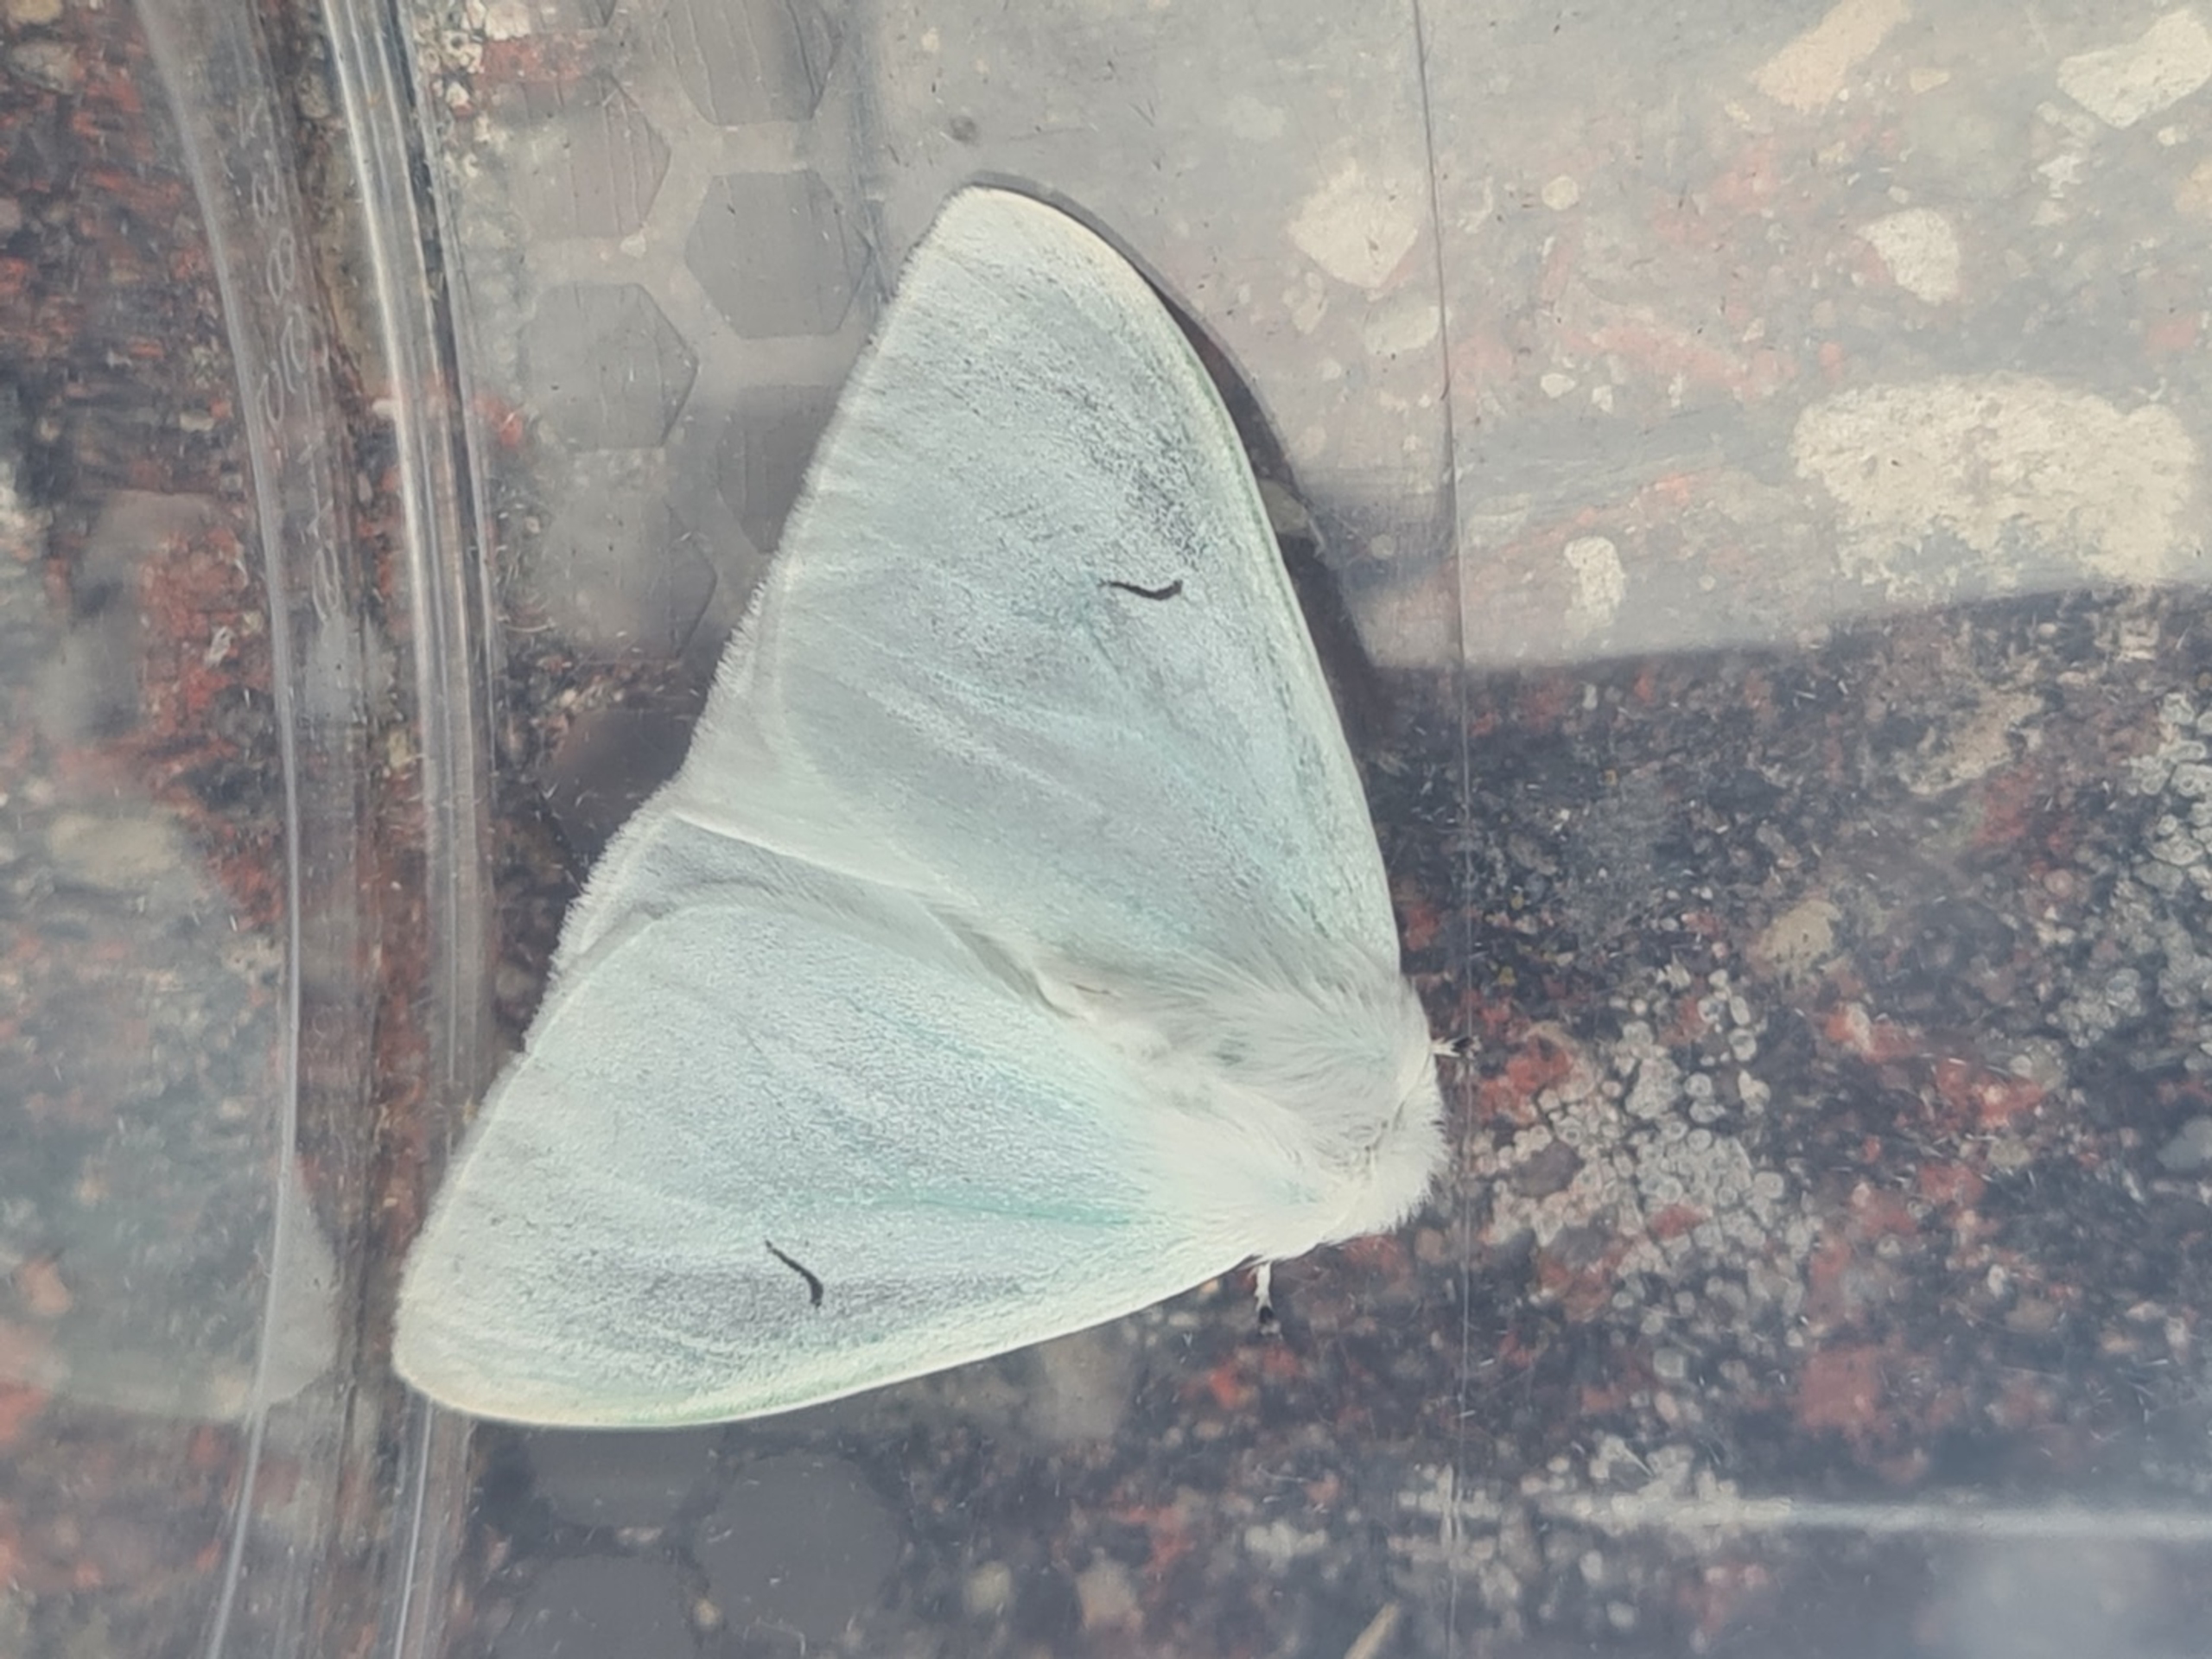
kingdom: Animalia
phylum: Arthropoda
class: Insecta
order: Lepidoptera
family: Erebidae
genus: Arctornis
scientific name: Arctornis l-nigrum
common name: Det sorte l
